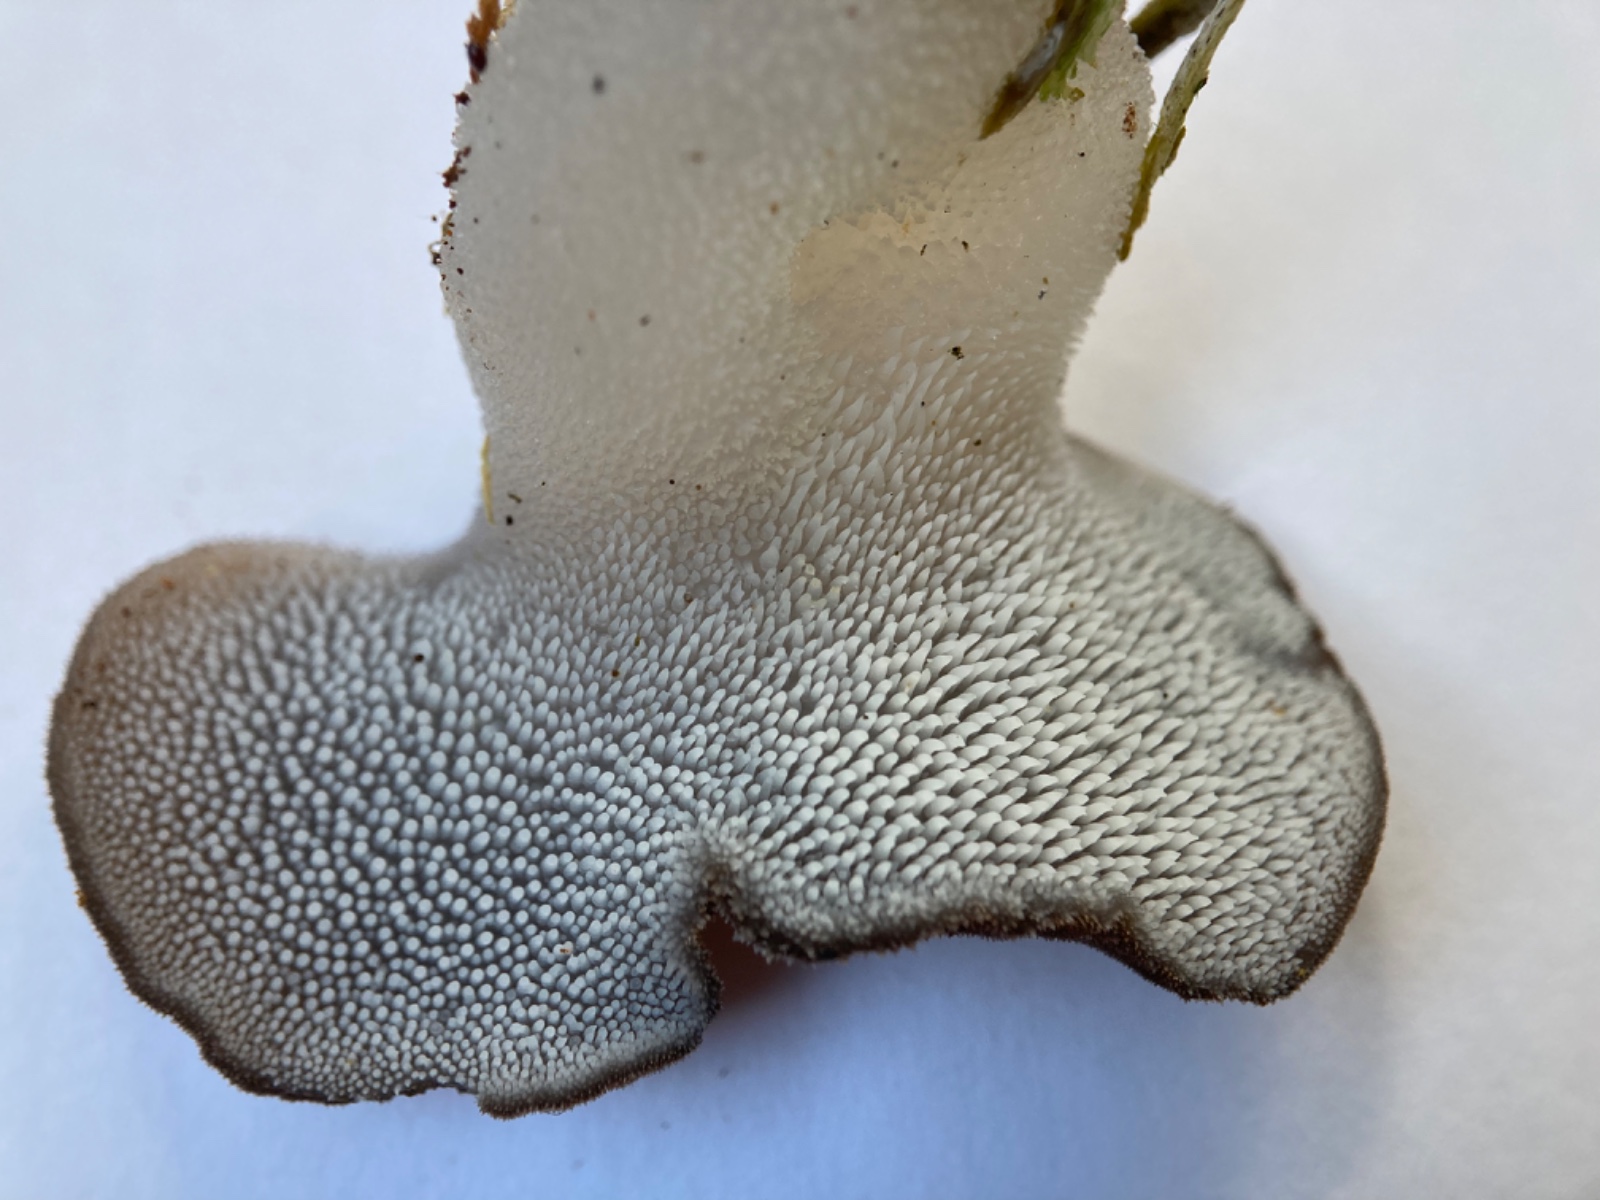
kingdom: Fungi
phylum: Basidiomycota
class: Agaricomycetes
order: Auriculariales
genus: Pseudohydnum
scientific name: Pseudohydnum gelatinosum
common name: bævretand
